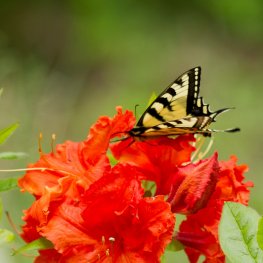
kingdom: Animalia
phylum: Arthropoda
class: Insecta
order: Lepidoptera
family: Papilionidae
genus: Pterourus
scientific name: Pterourus canadensis
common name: Canadian Tiger Swallowtail
